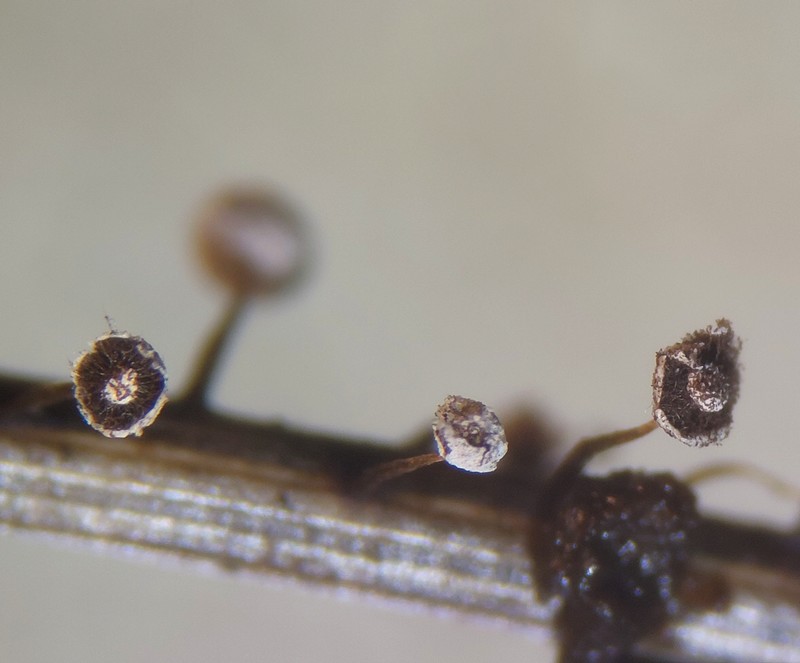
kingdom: Protozoa
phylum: Mycetozoa
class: Myxomycetes
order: Physarales
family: Didymiaceae
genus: Didymium
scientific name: Didymium bahiense
